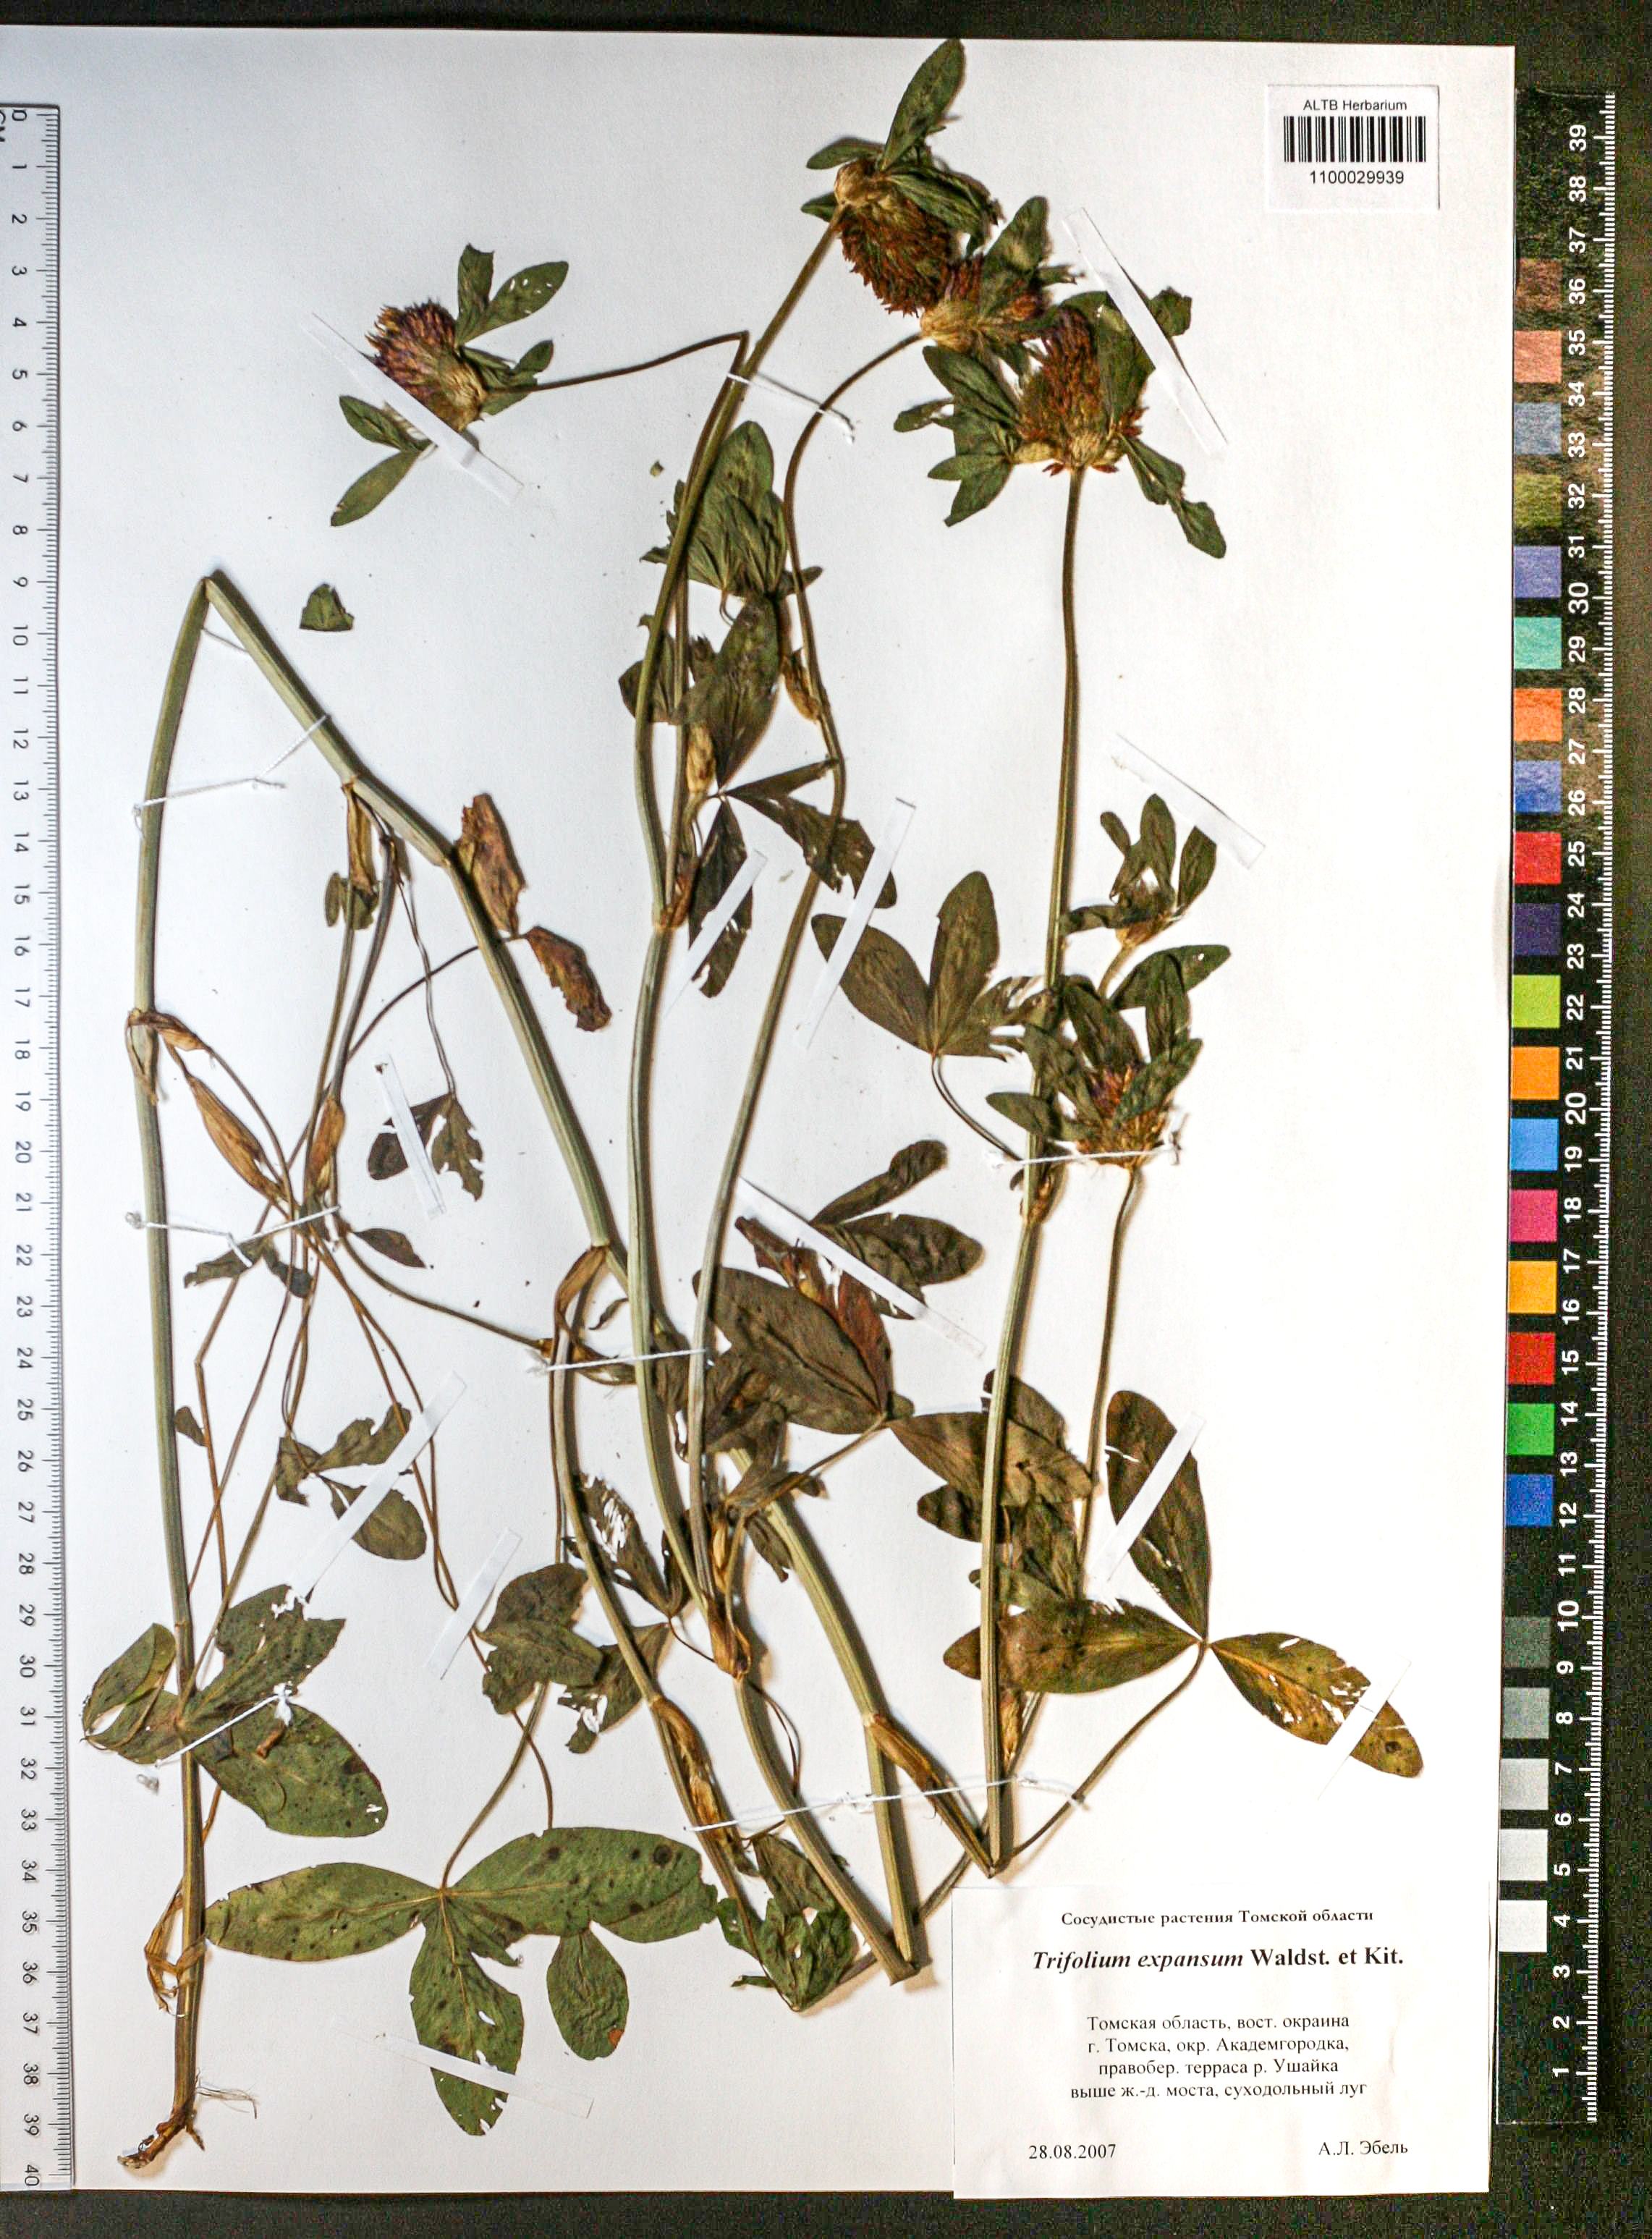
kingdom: Plantae
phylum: Tracheophyta
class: Magnoliopsida
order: Fabales
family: Fabaceae
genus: Trifolium
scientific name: Trifolium pratense
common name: Red clover
